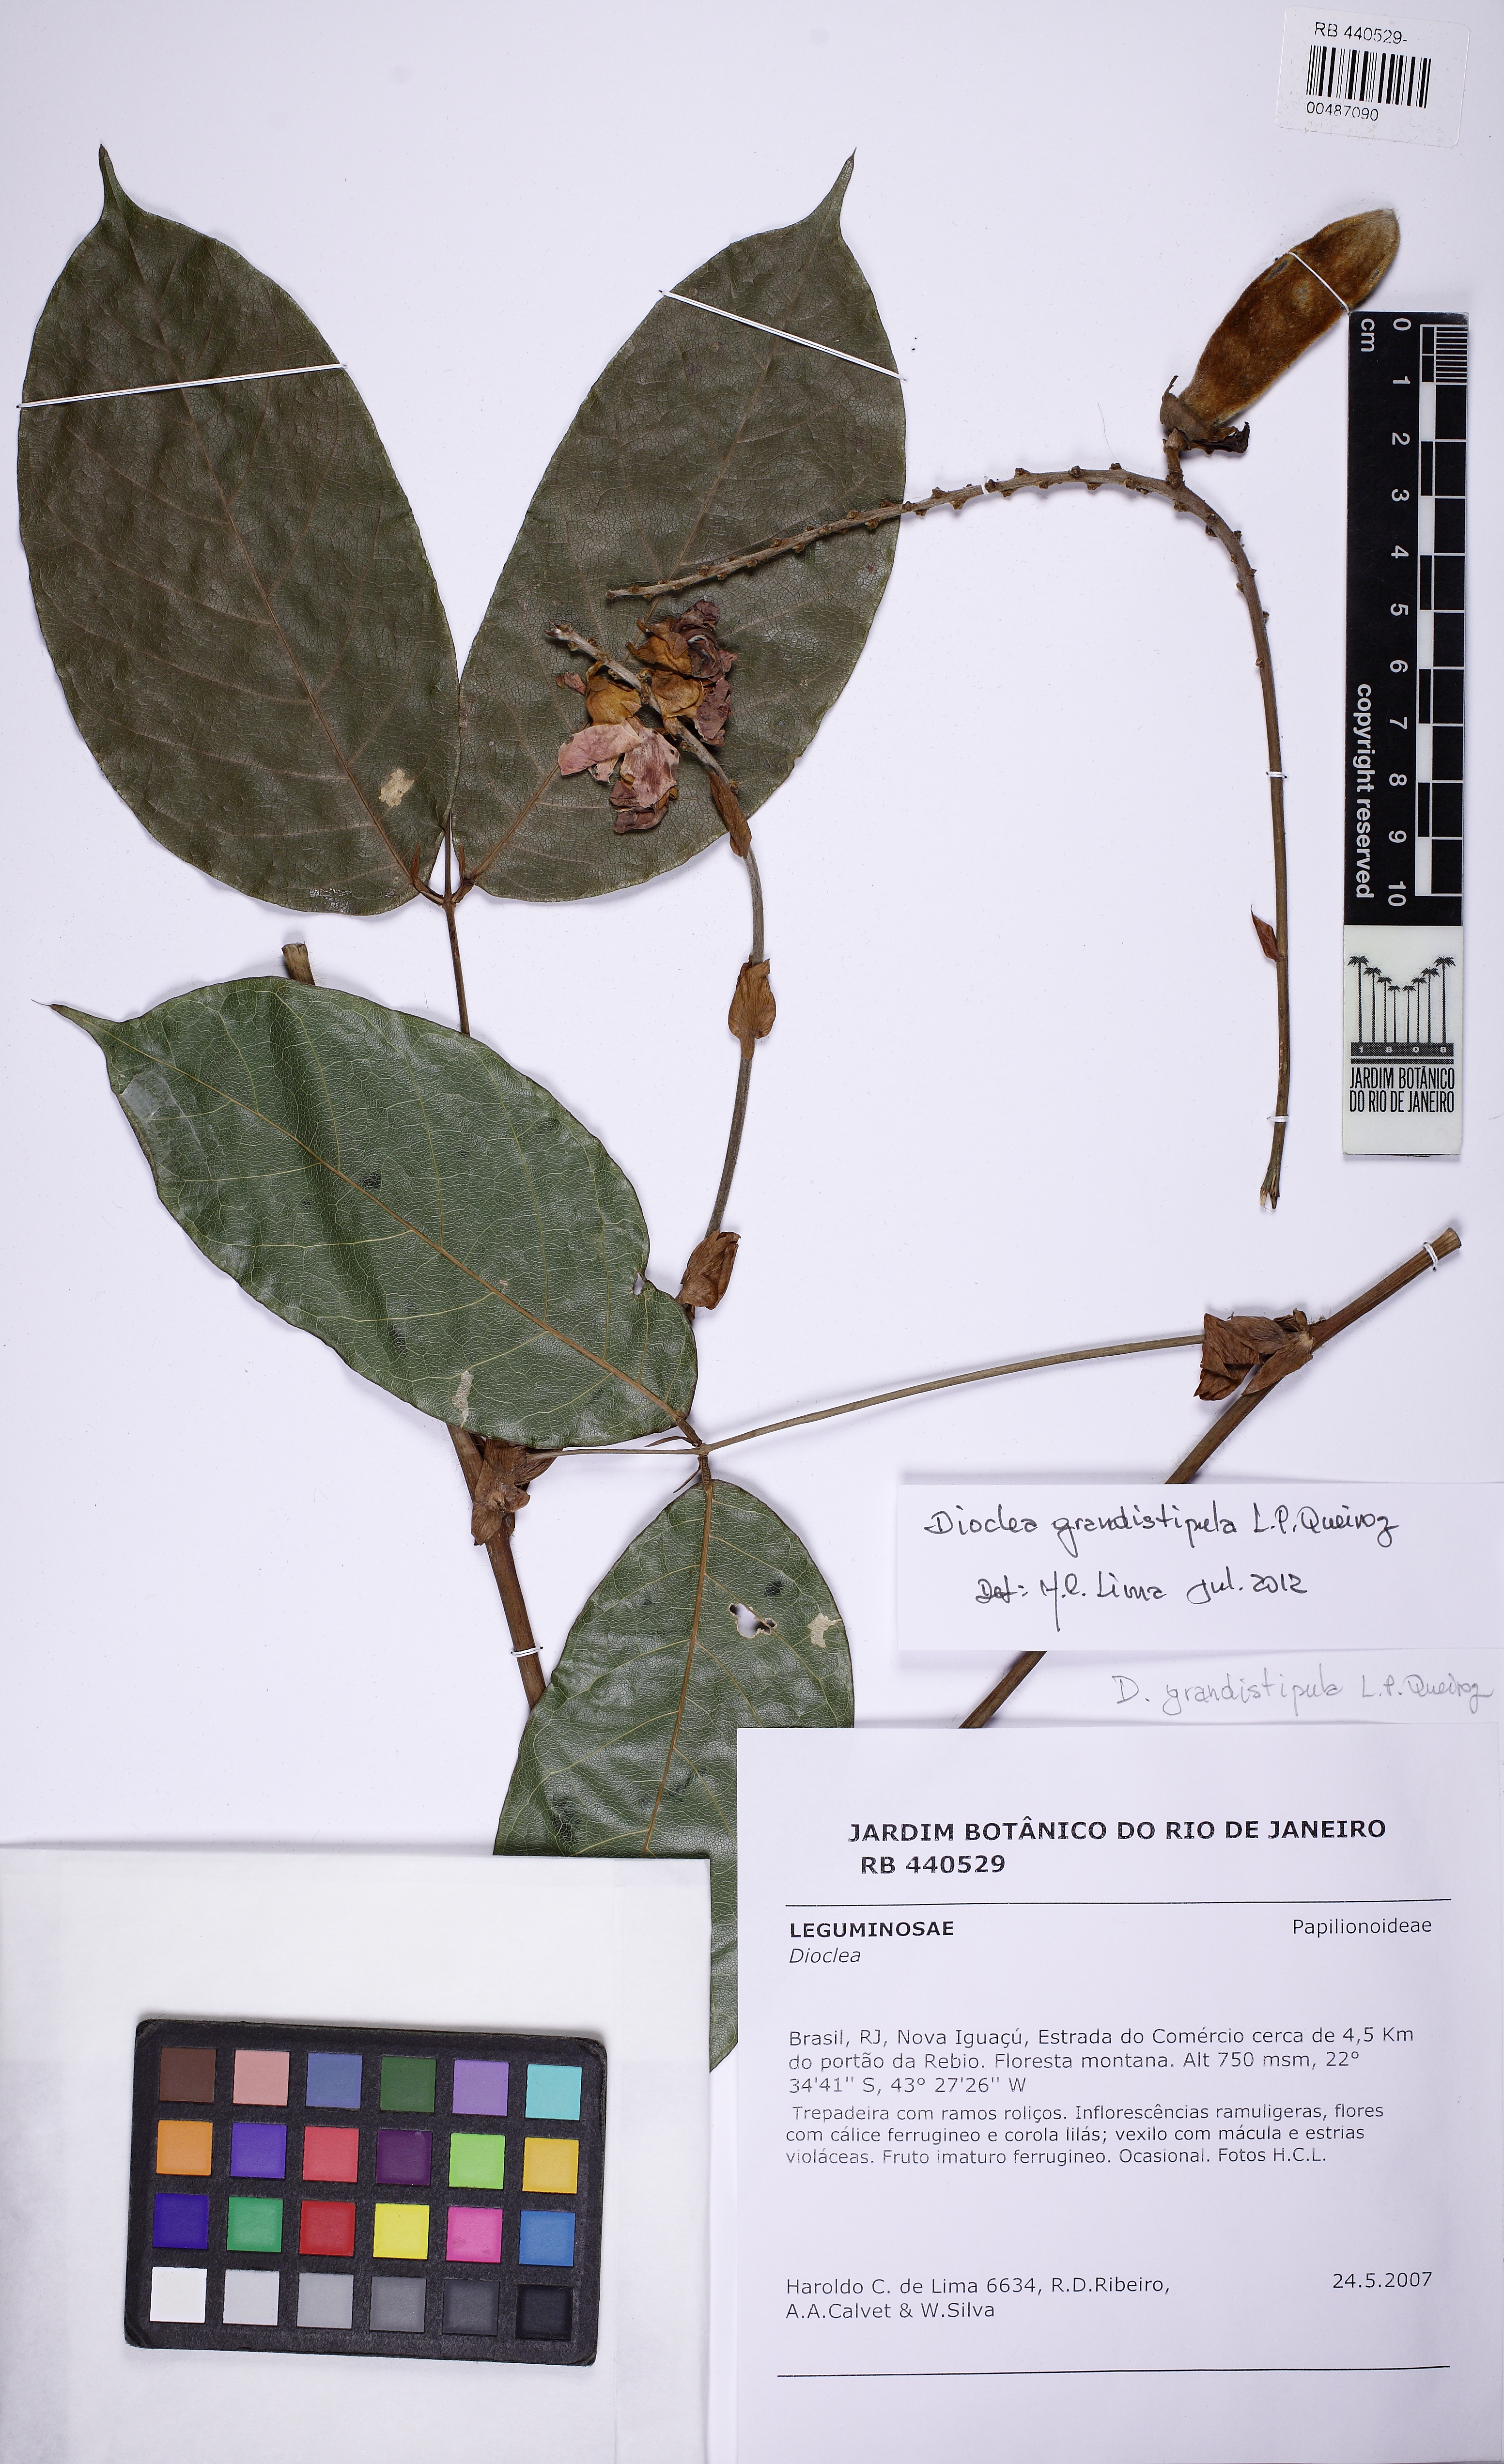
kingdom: Plantae
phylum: Tracheophyta
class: Magnoliopsida
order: Fabales
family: Fabaceae
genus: Macropsychanthus
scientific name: Macropsychanthus grandistipulus
